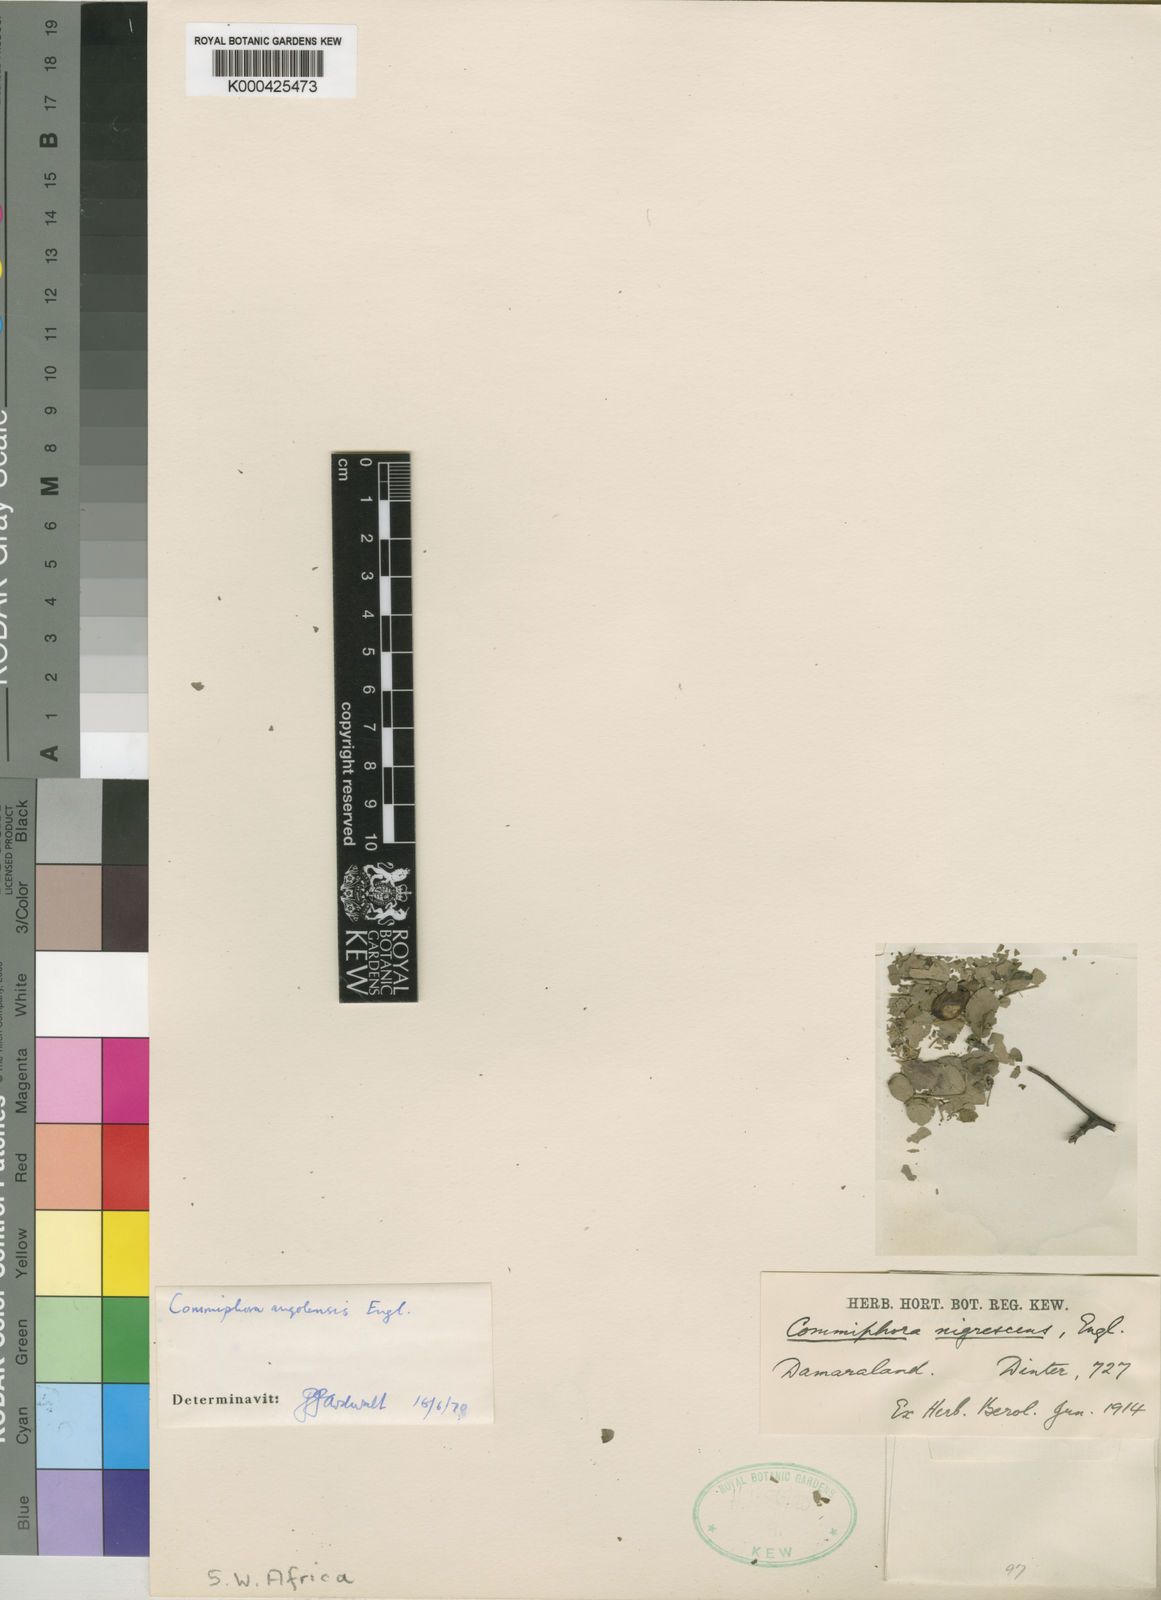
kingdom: Plantae
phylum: Tracheophyta
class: Magnoliopsida
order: Sapindales
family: Burseraceae
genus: Commiphora
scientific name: Commiphora angolensis
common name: Poison-grub
